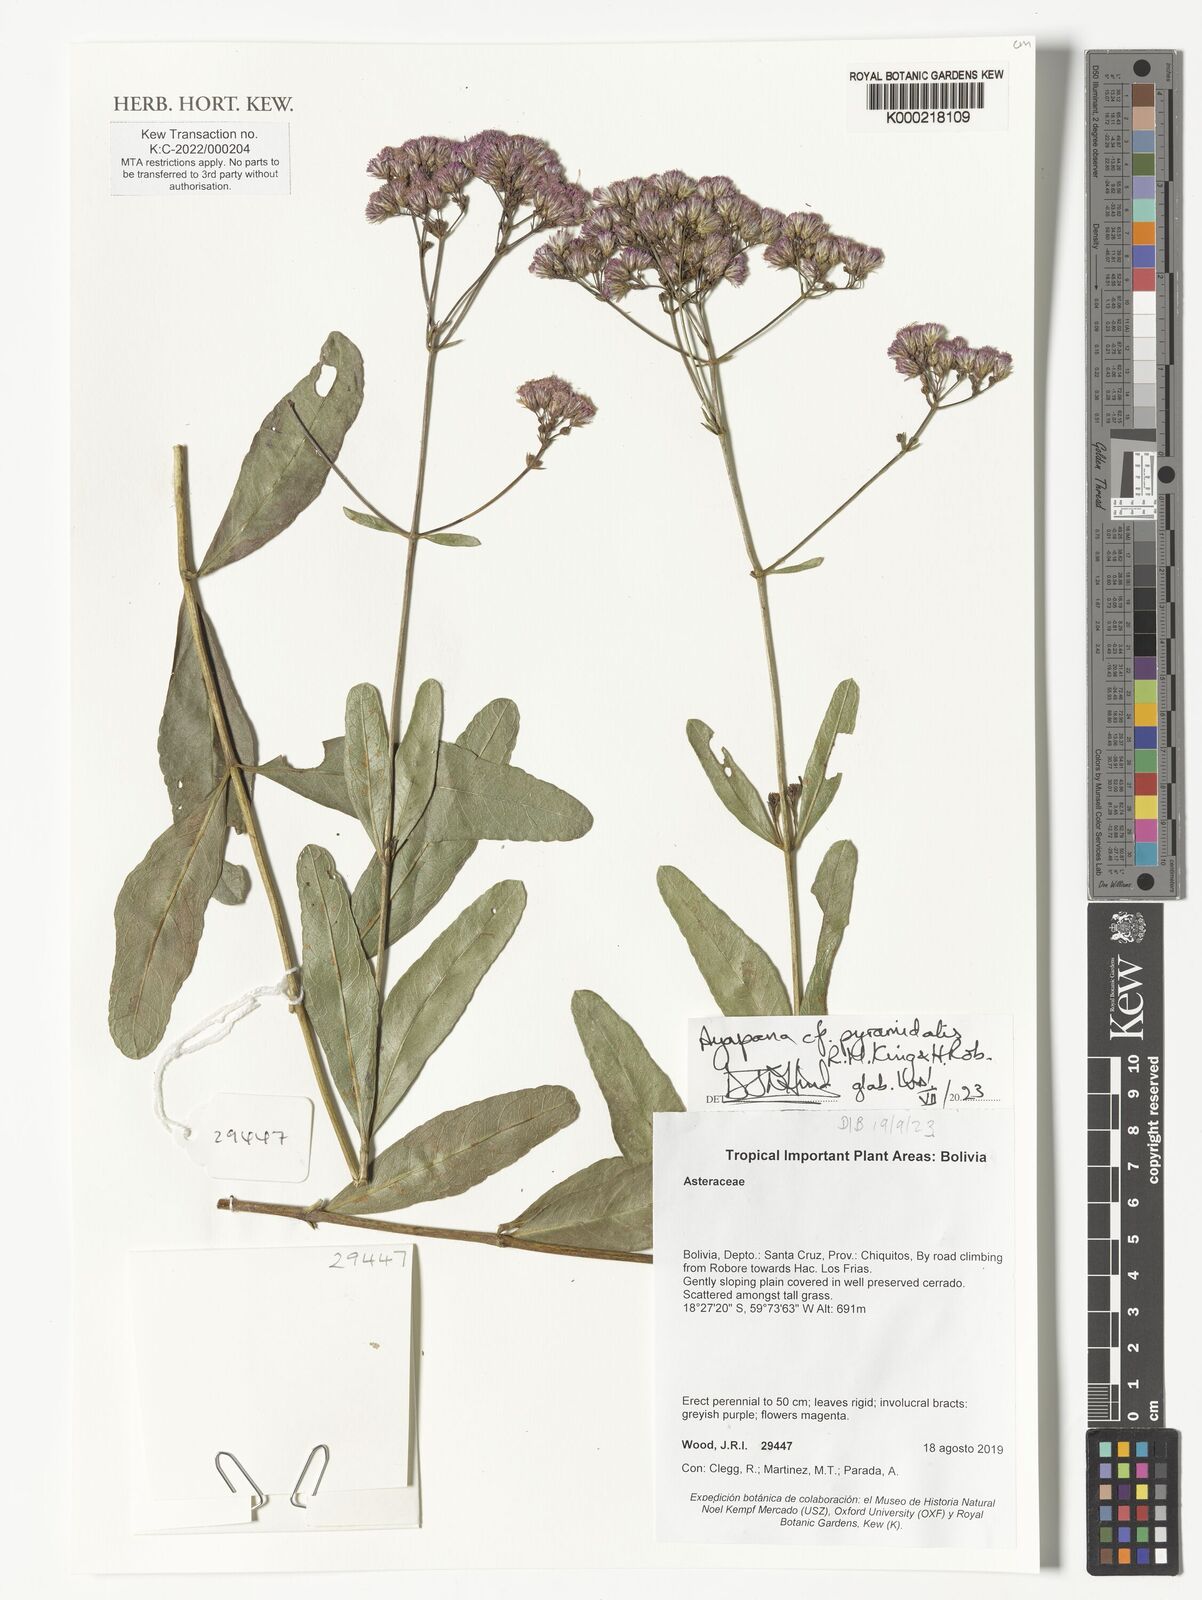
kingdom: Plantae
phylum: Tracheophyta
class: Magnoliopsida
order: Asterales
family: Asteraceae
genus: Ayapana
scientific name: Ayapana stenolepis
